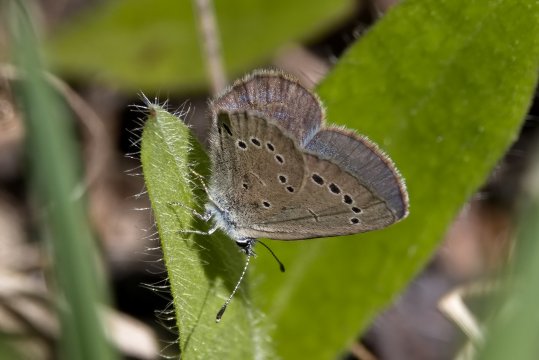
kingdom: Animalia
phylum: Arthropoda
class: Insecta
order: Lepidoptera
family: Lycaenidae
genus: Glaucopsyche
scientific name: Glaucopsyche lygdamus
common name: Silvery Blue
